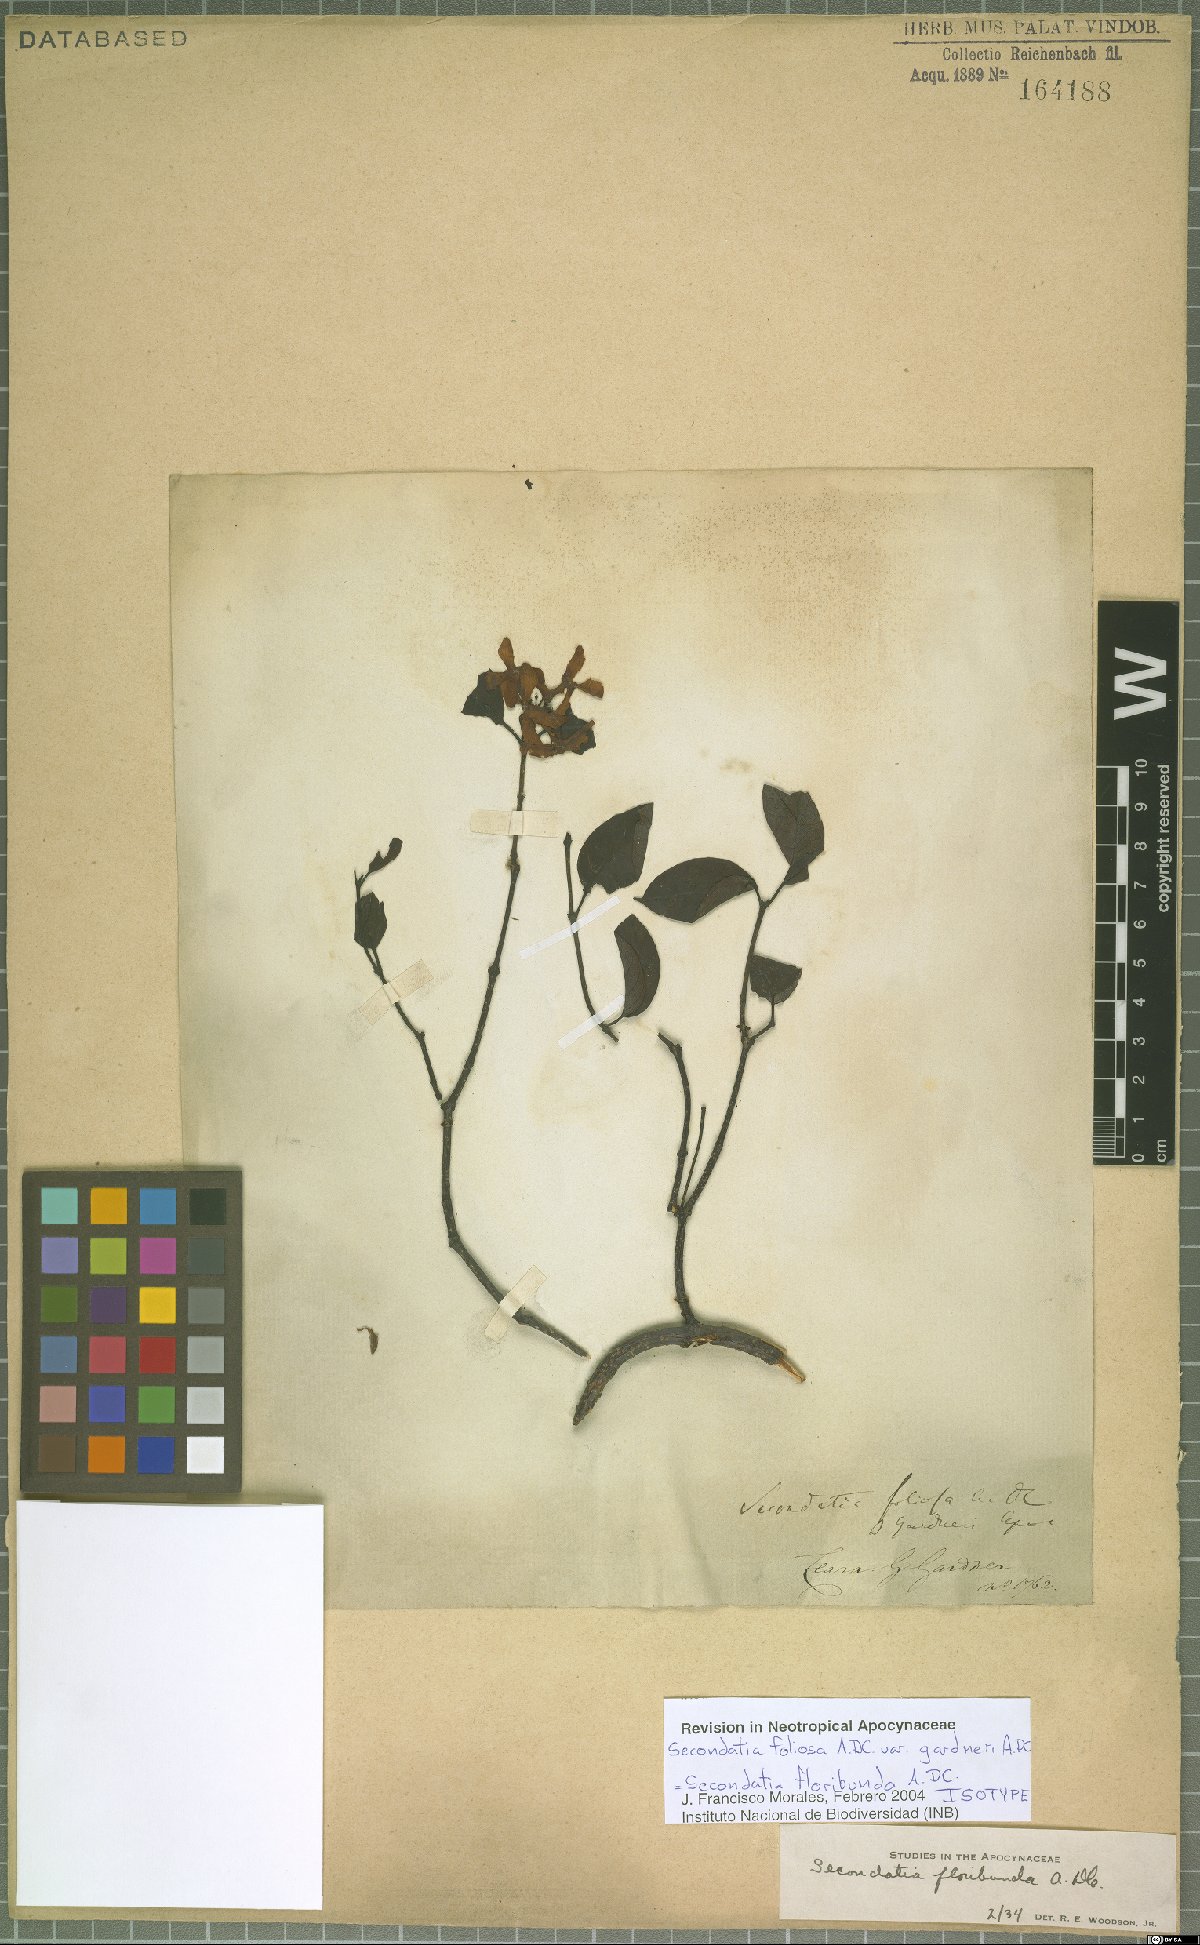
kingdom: Plantae
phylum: Tracheophyta
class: Magnoliopsida
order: Gentianales
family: Apocynaceae
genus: Secondatia
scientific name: Secondatia floribunda
